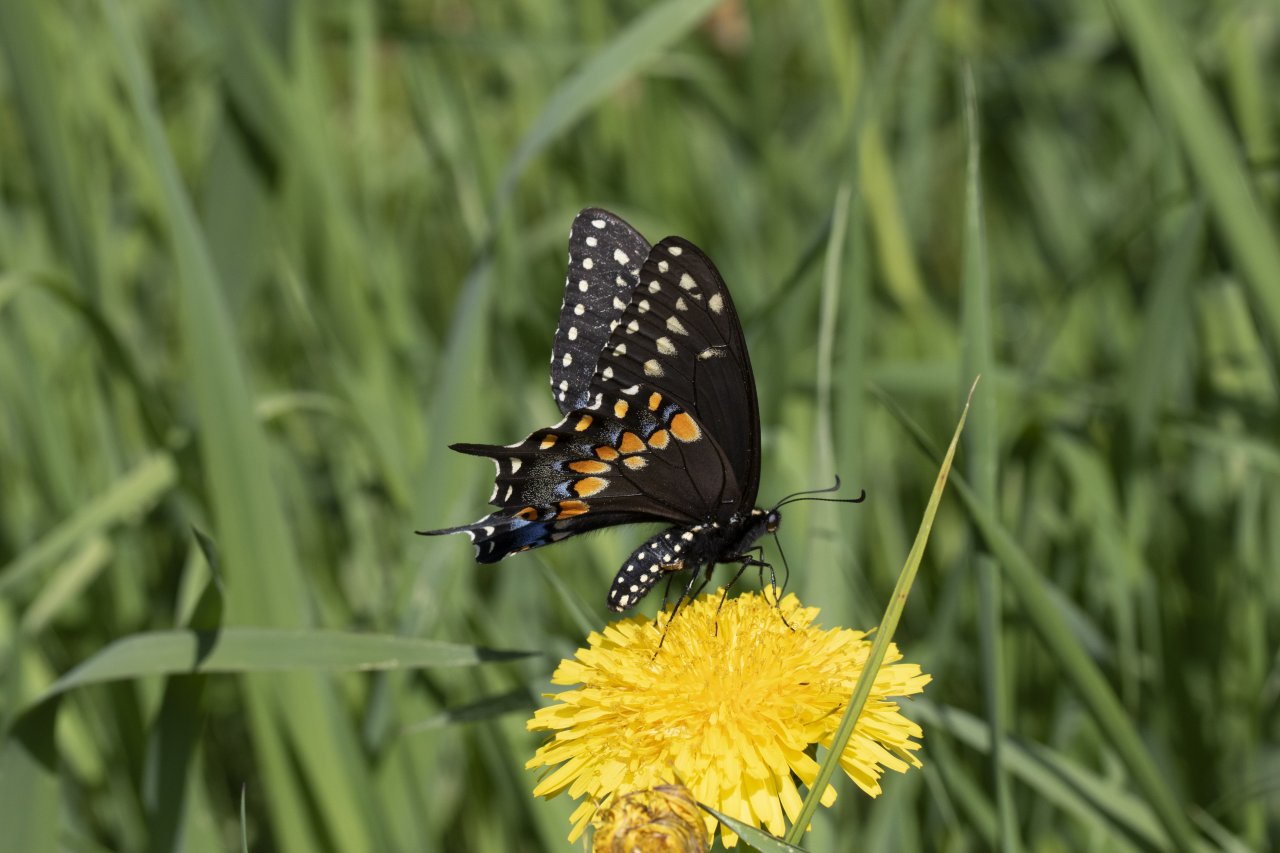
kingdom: Animalia
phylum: Arthropoda
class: Insecta
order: Lepidoptera
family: Papilionidae
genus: Papilio
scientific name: Papilio polyxenes
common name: Black Swallowtail
